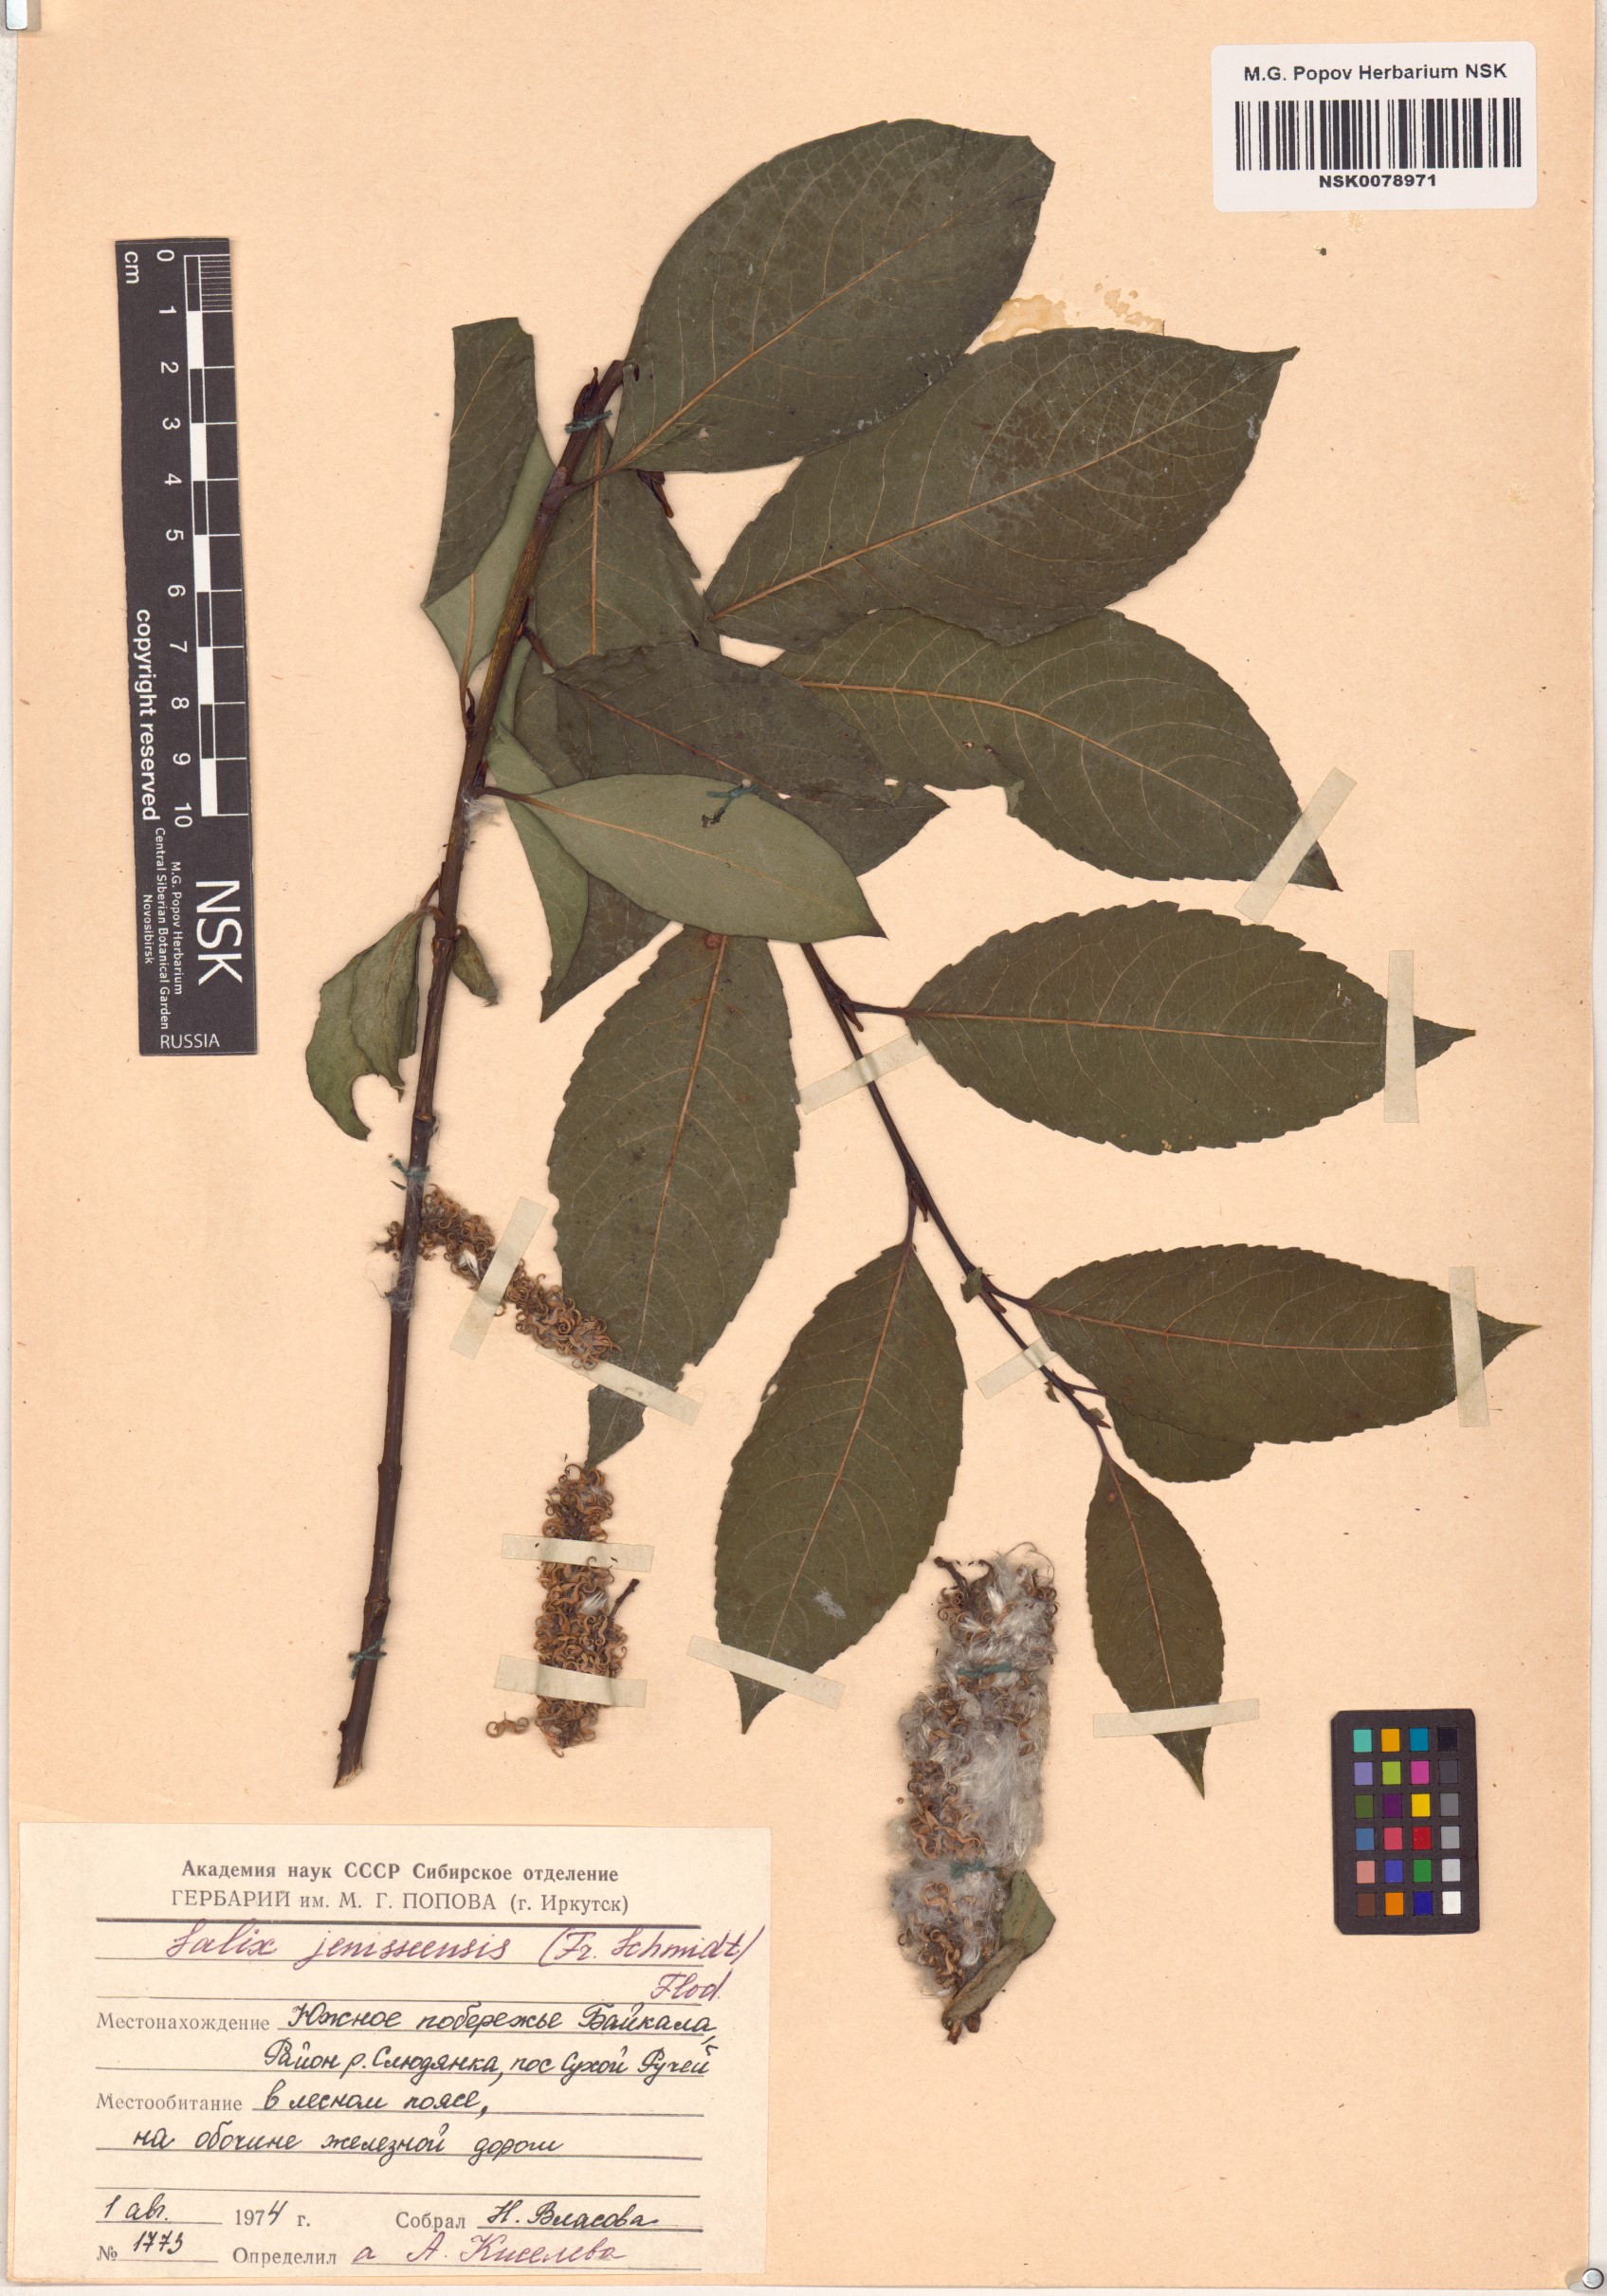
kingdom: Plantae
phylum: Tracheophyta
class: Magnoliopsida
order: Malpighiales
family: Salicaceae
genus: Salix
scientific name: Salix jenisseensis
